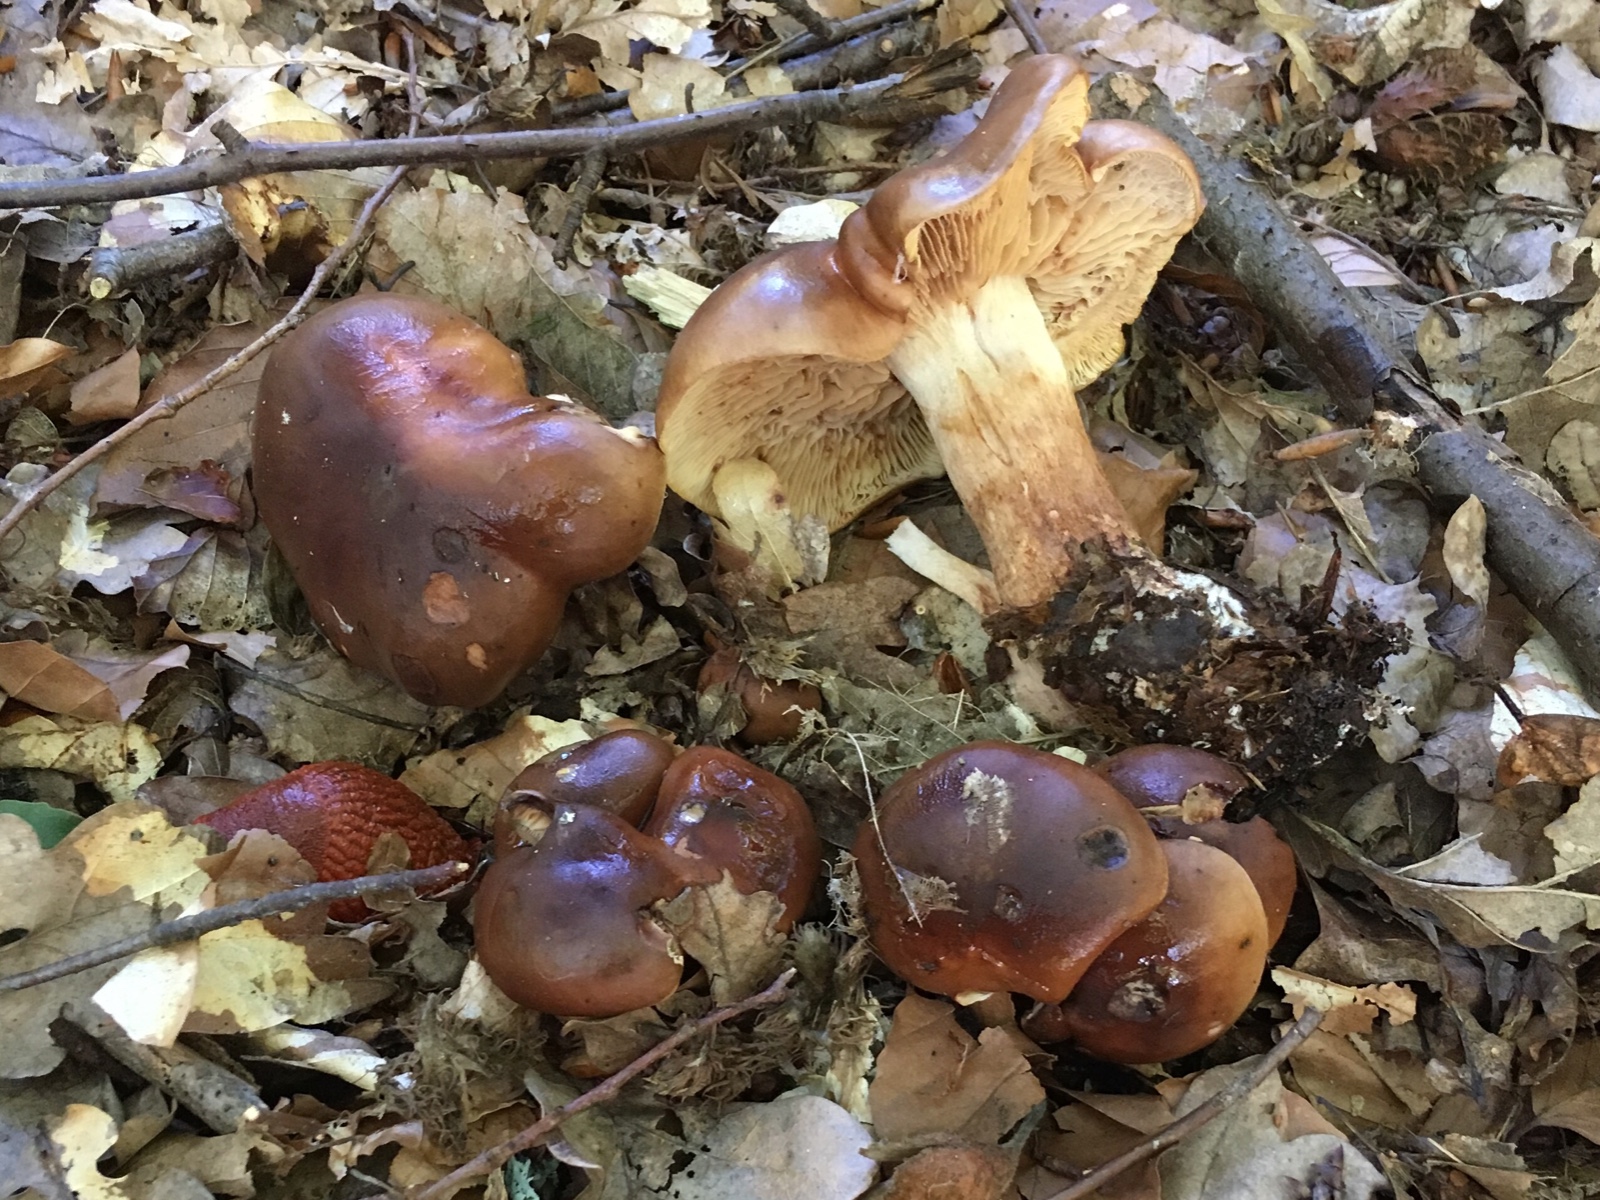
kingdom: Fungi
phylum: Basidiomycota
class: Agaricomycetes
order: Agaricales
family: Tricholomataceae
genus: Tricholoma
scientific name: Tricholoma ustale
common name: sveden ridderhat
